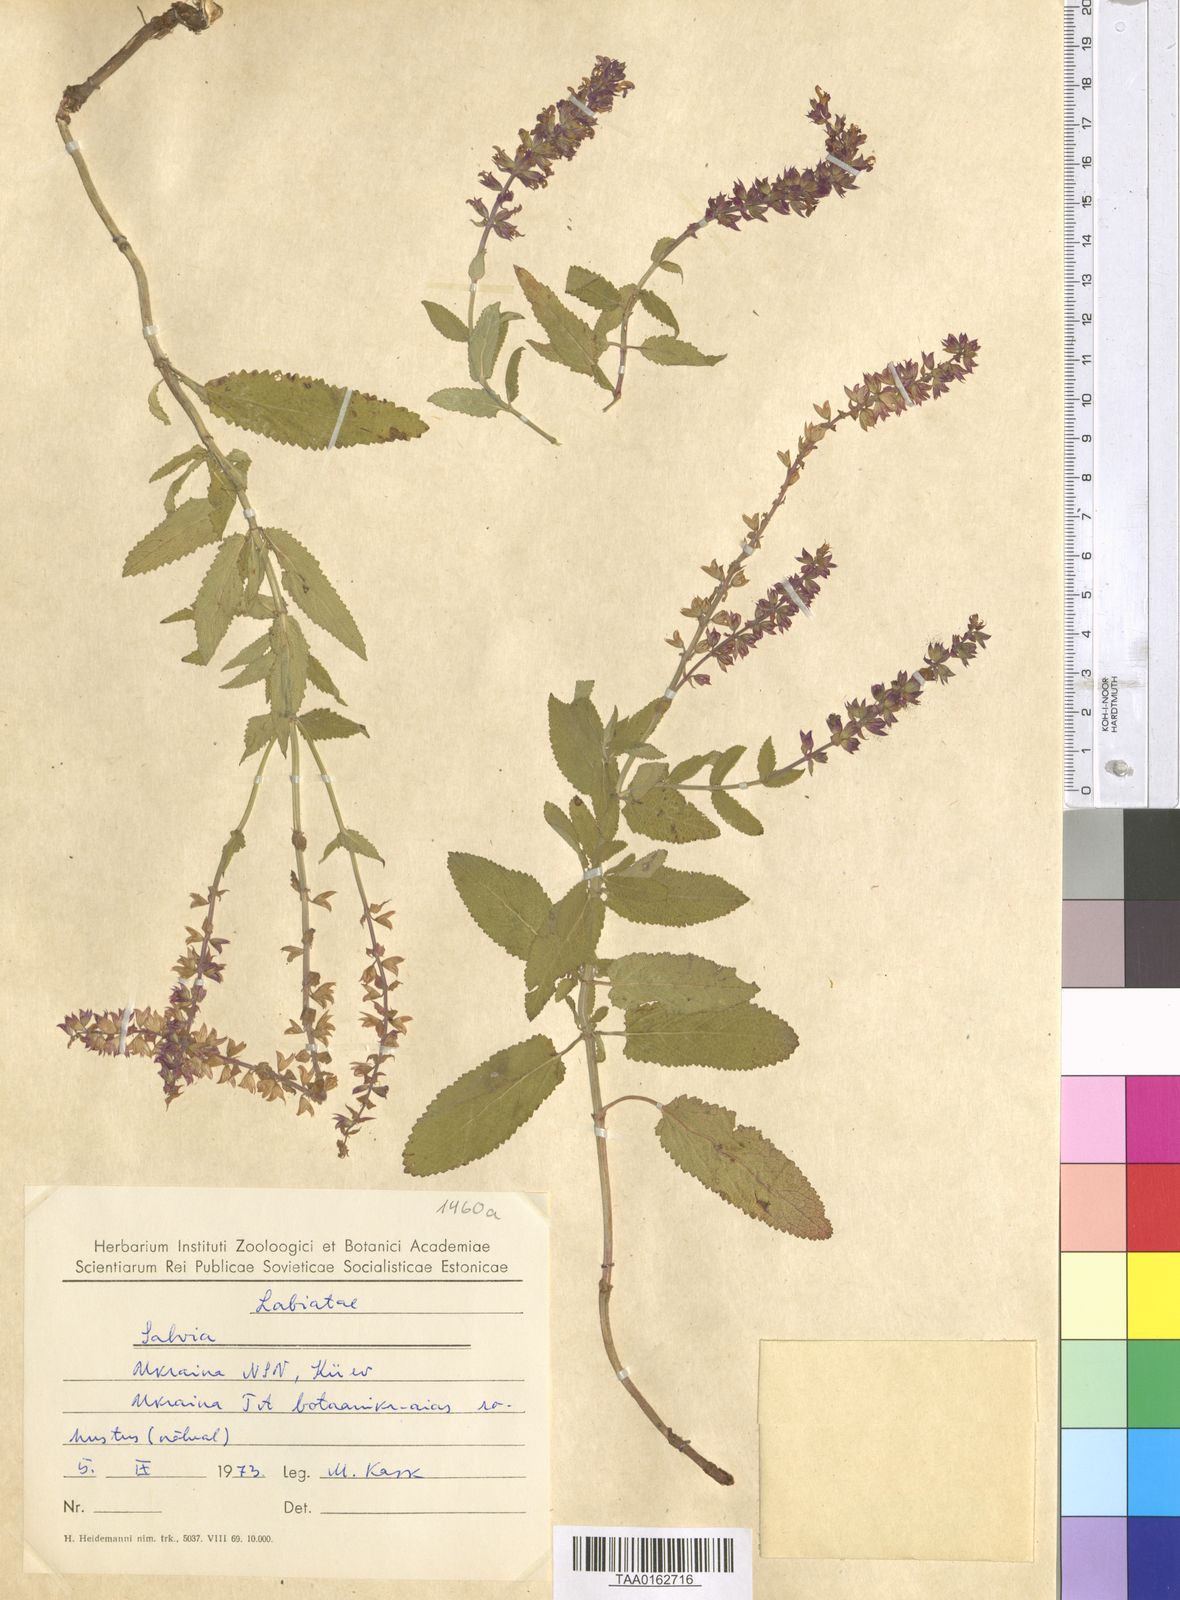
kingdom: Plantae
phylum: Tracheophyta
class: Magnoliopsida
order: Lamiales
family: Lamiaceae
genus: Salvia
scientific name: Salvia
